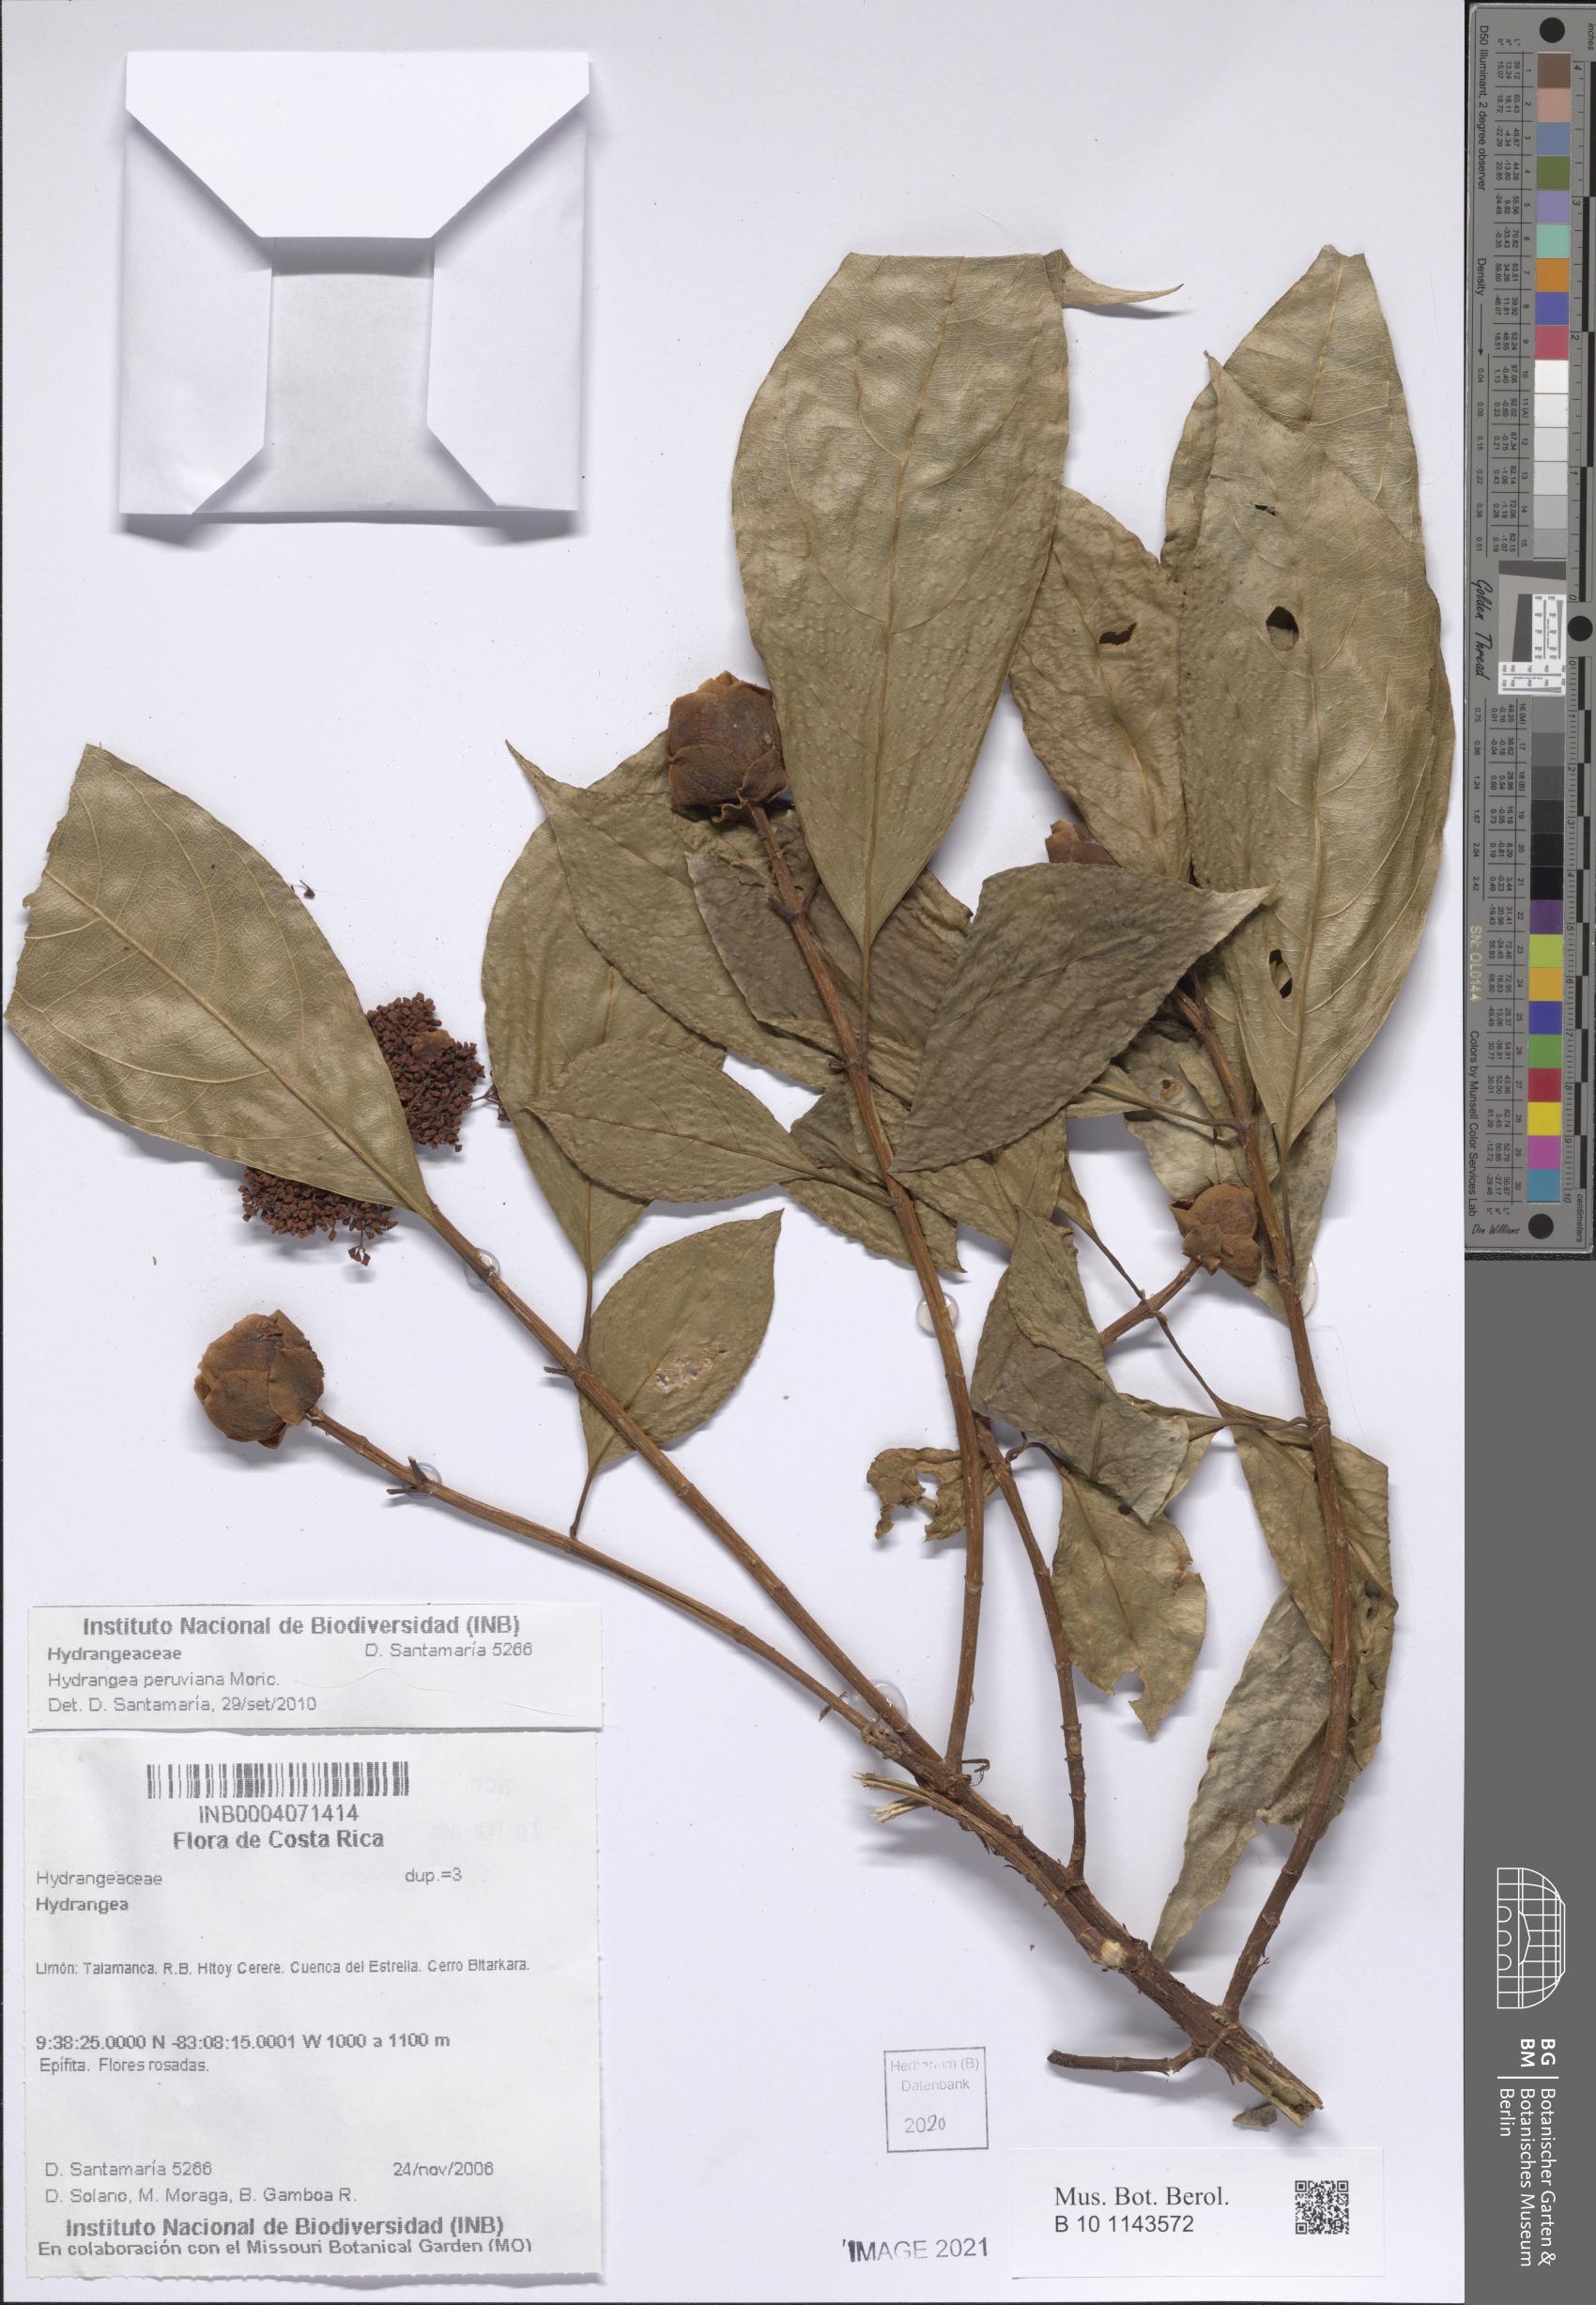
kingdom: Plantae
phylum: Tracheophyta
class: Magnoliopsida
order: Cornales
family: Hydrangeaceae
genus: Hydrangea
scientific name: Hydrangea peruviana
